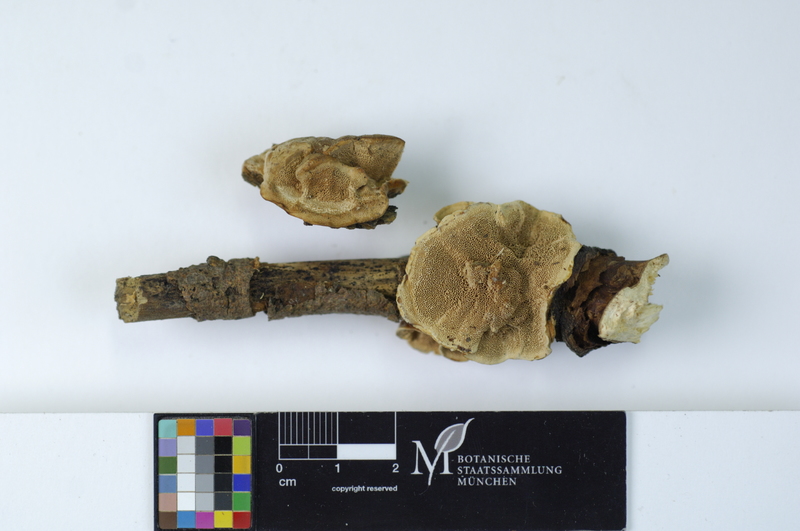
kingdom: Plantae
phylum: Tracheophyta
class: Magnoliopsida
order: Malpighiales
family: Salicaceae
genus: Salix
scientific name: Salix
